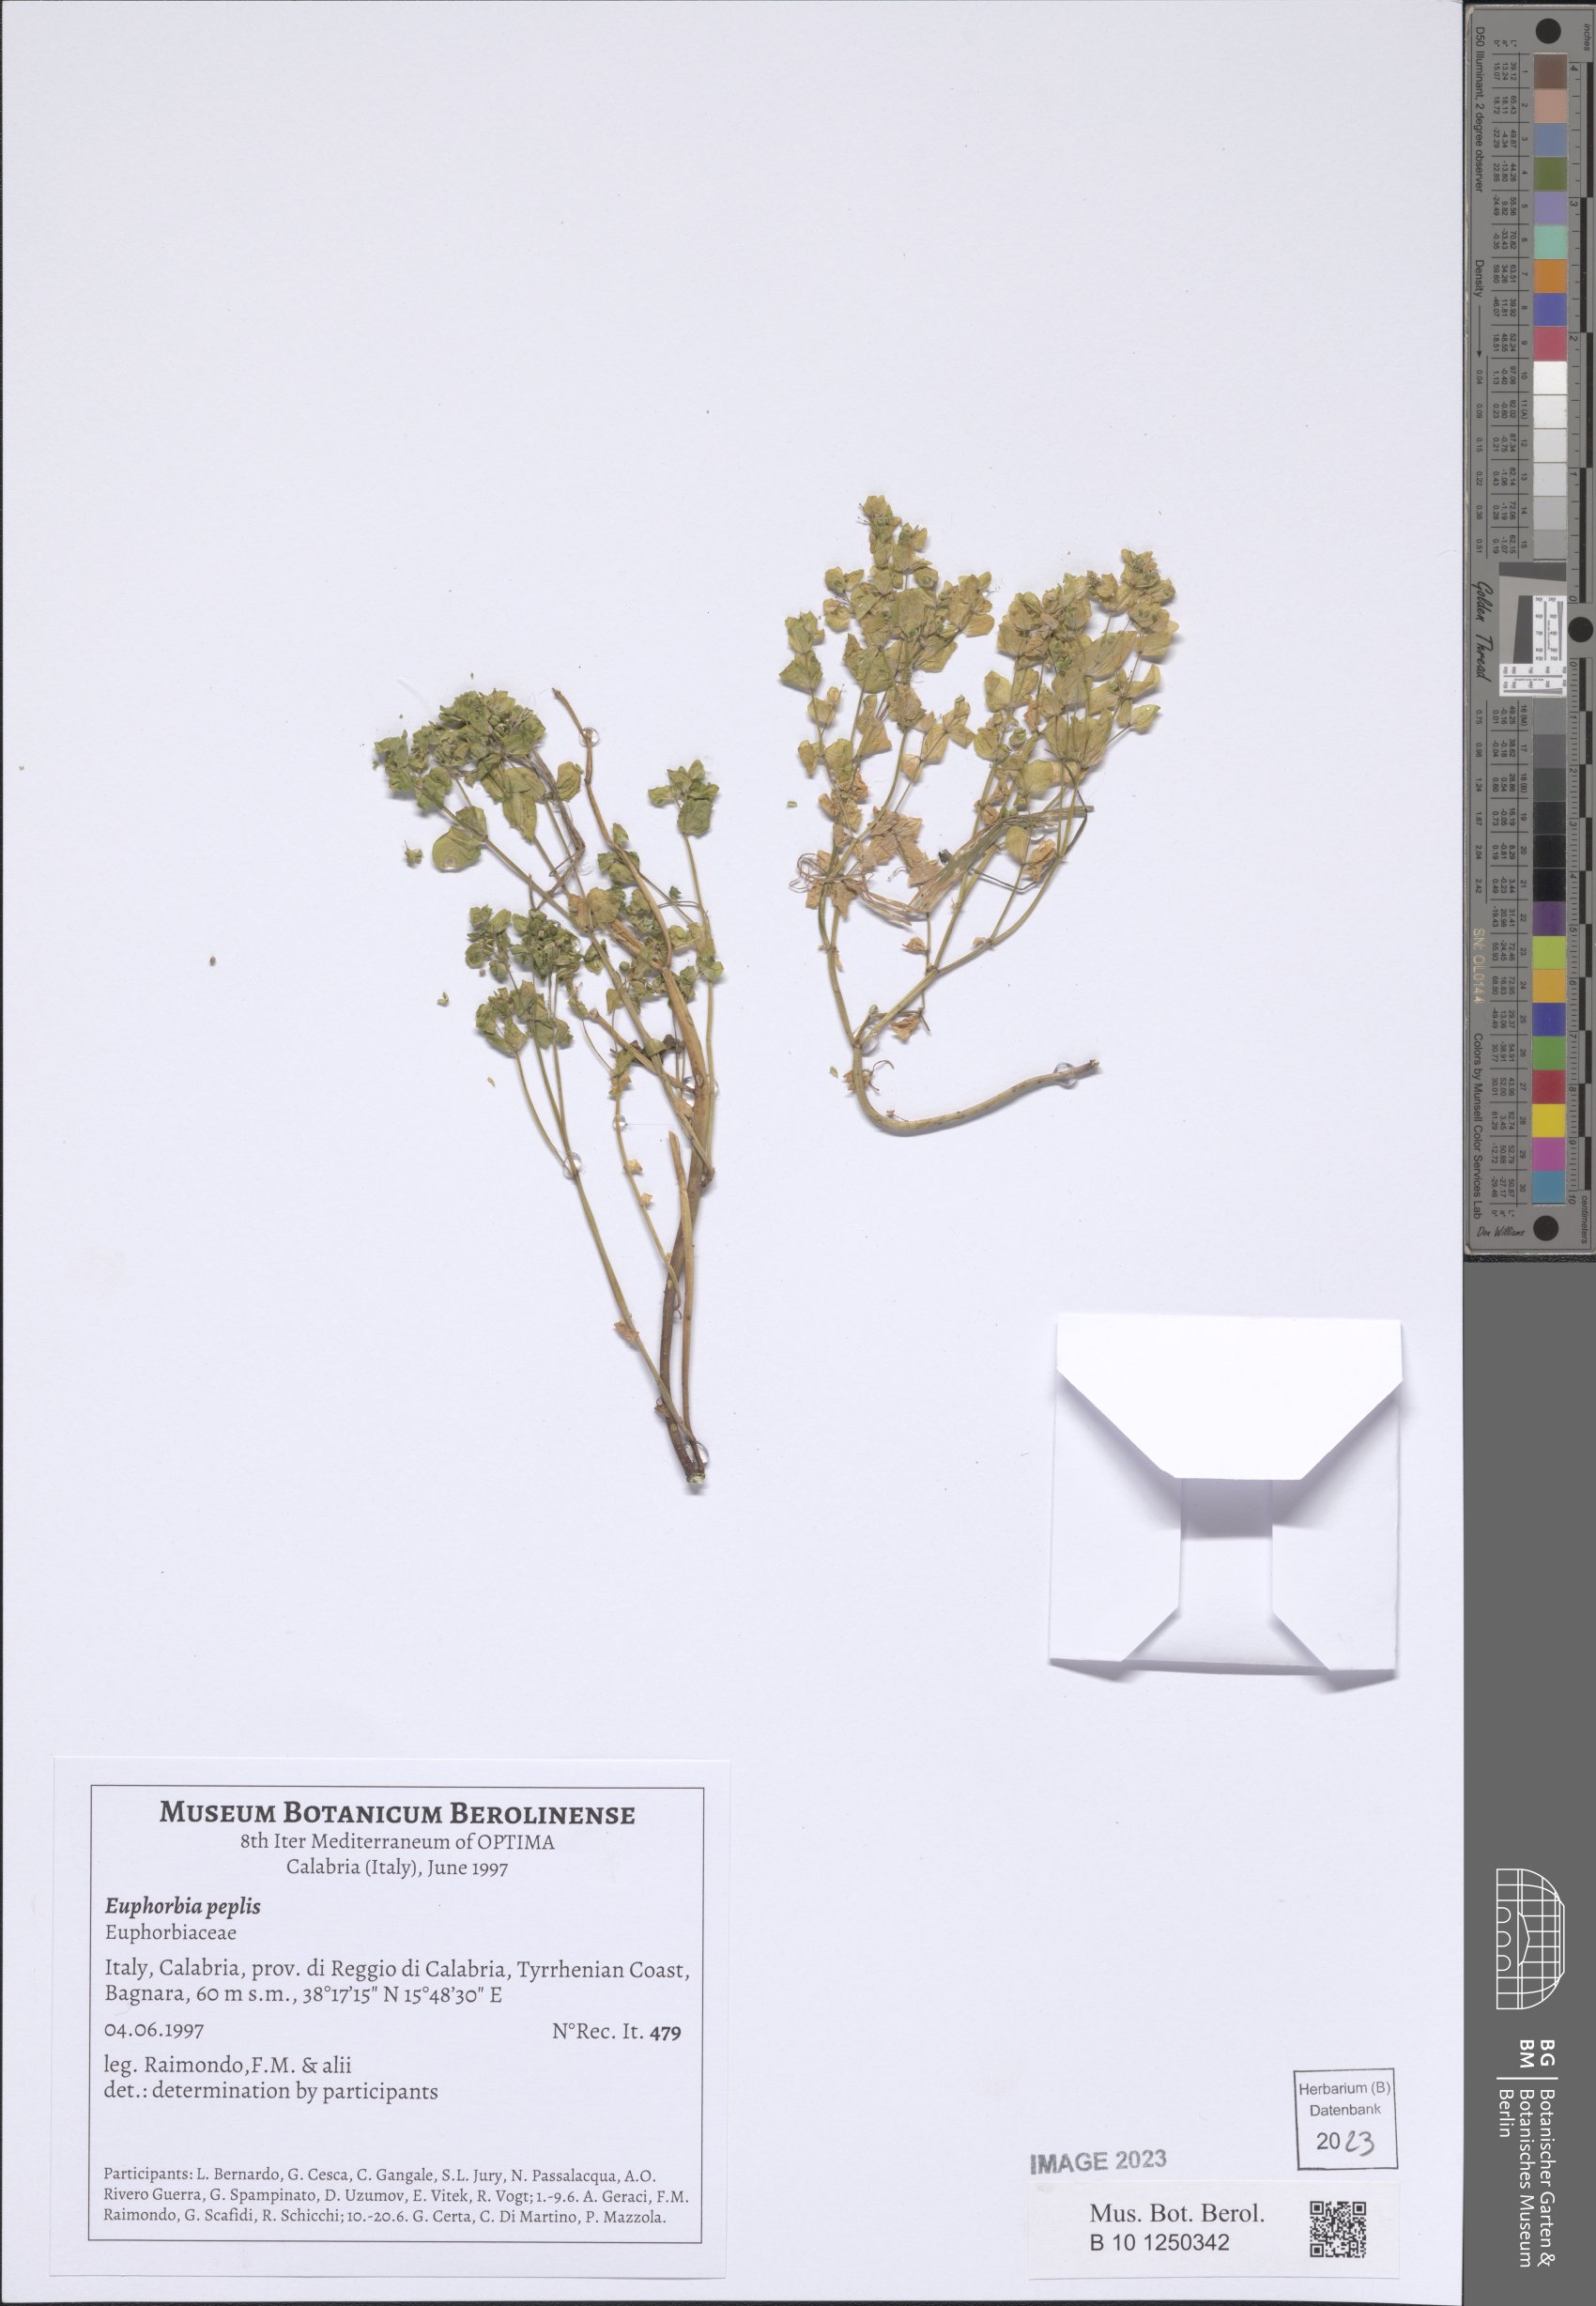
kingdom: Plantae
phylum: Tracheophyta
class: Magnoliopsida
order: Malpighiales
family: Euphorbiaceae
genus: Euphorbia
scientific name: Euphorbia peplis
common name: Purple spurge
